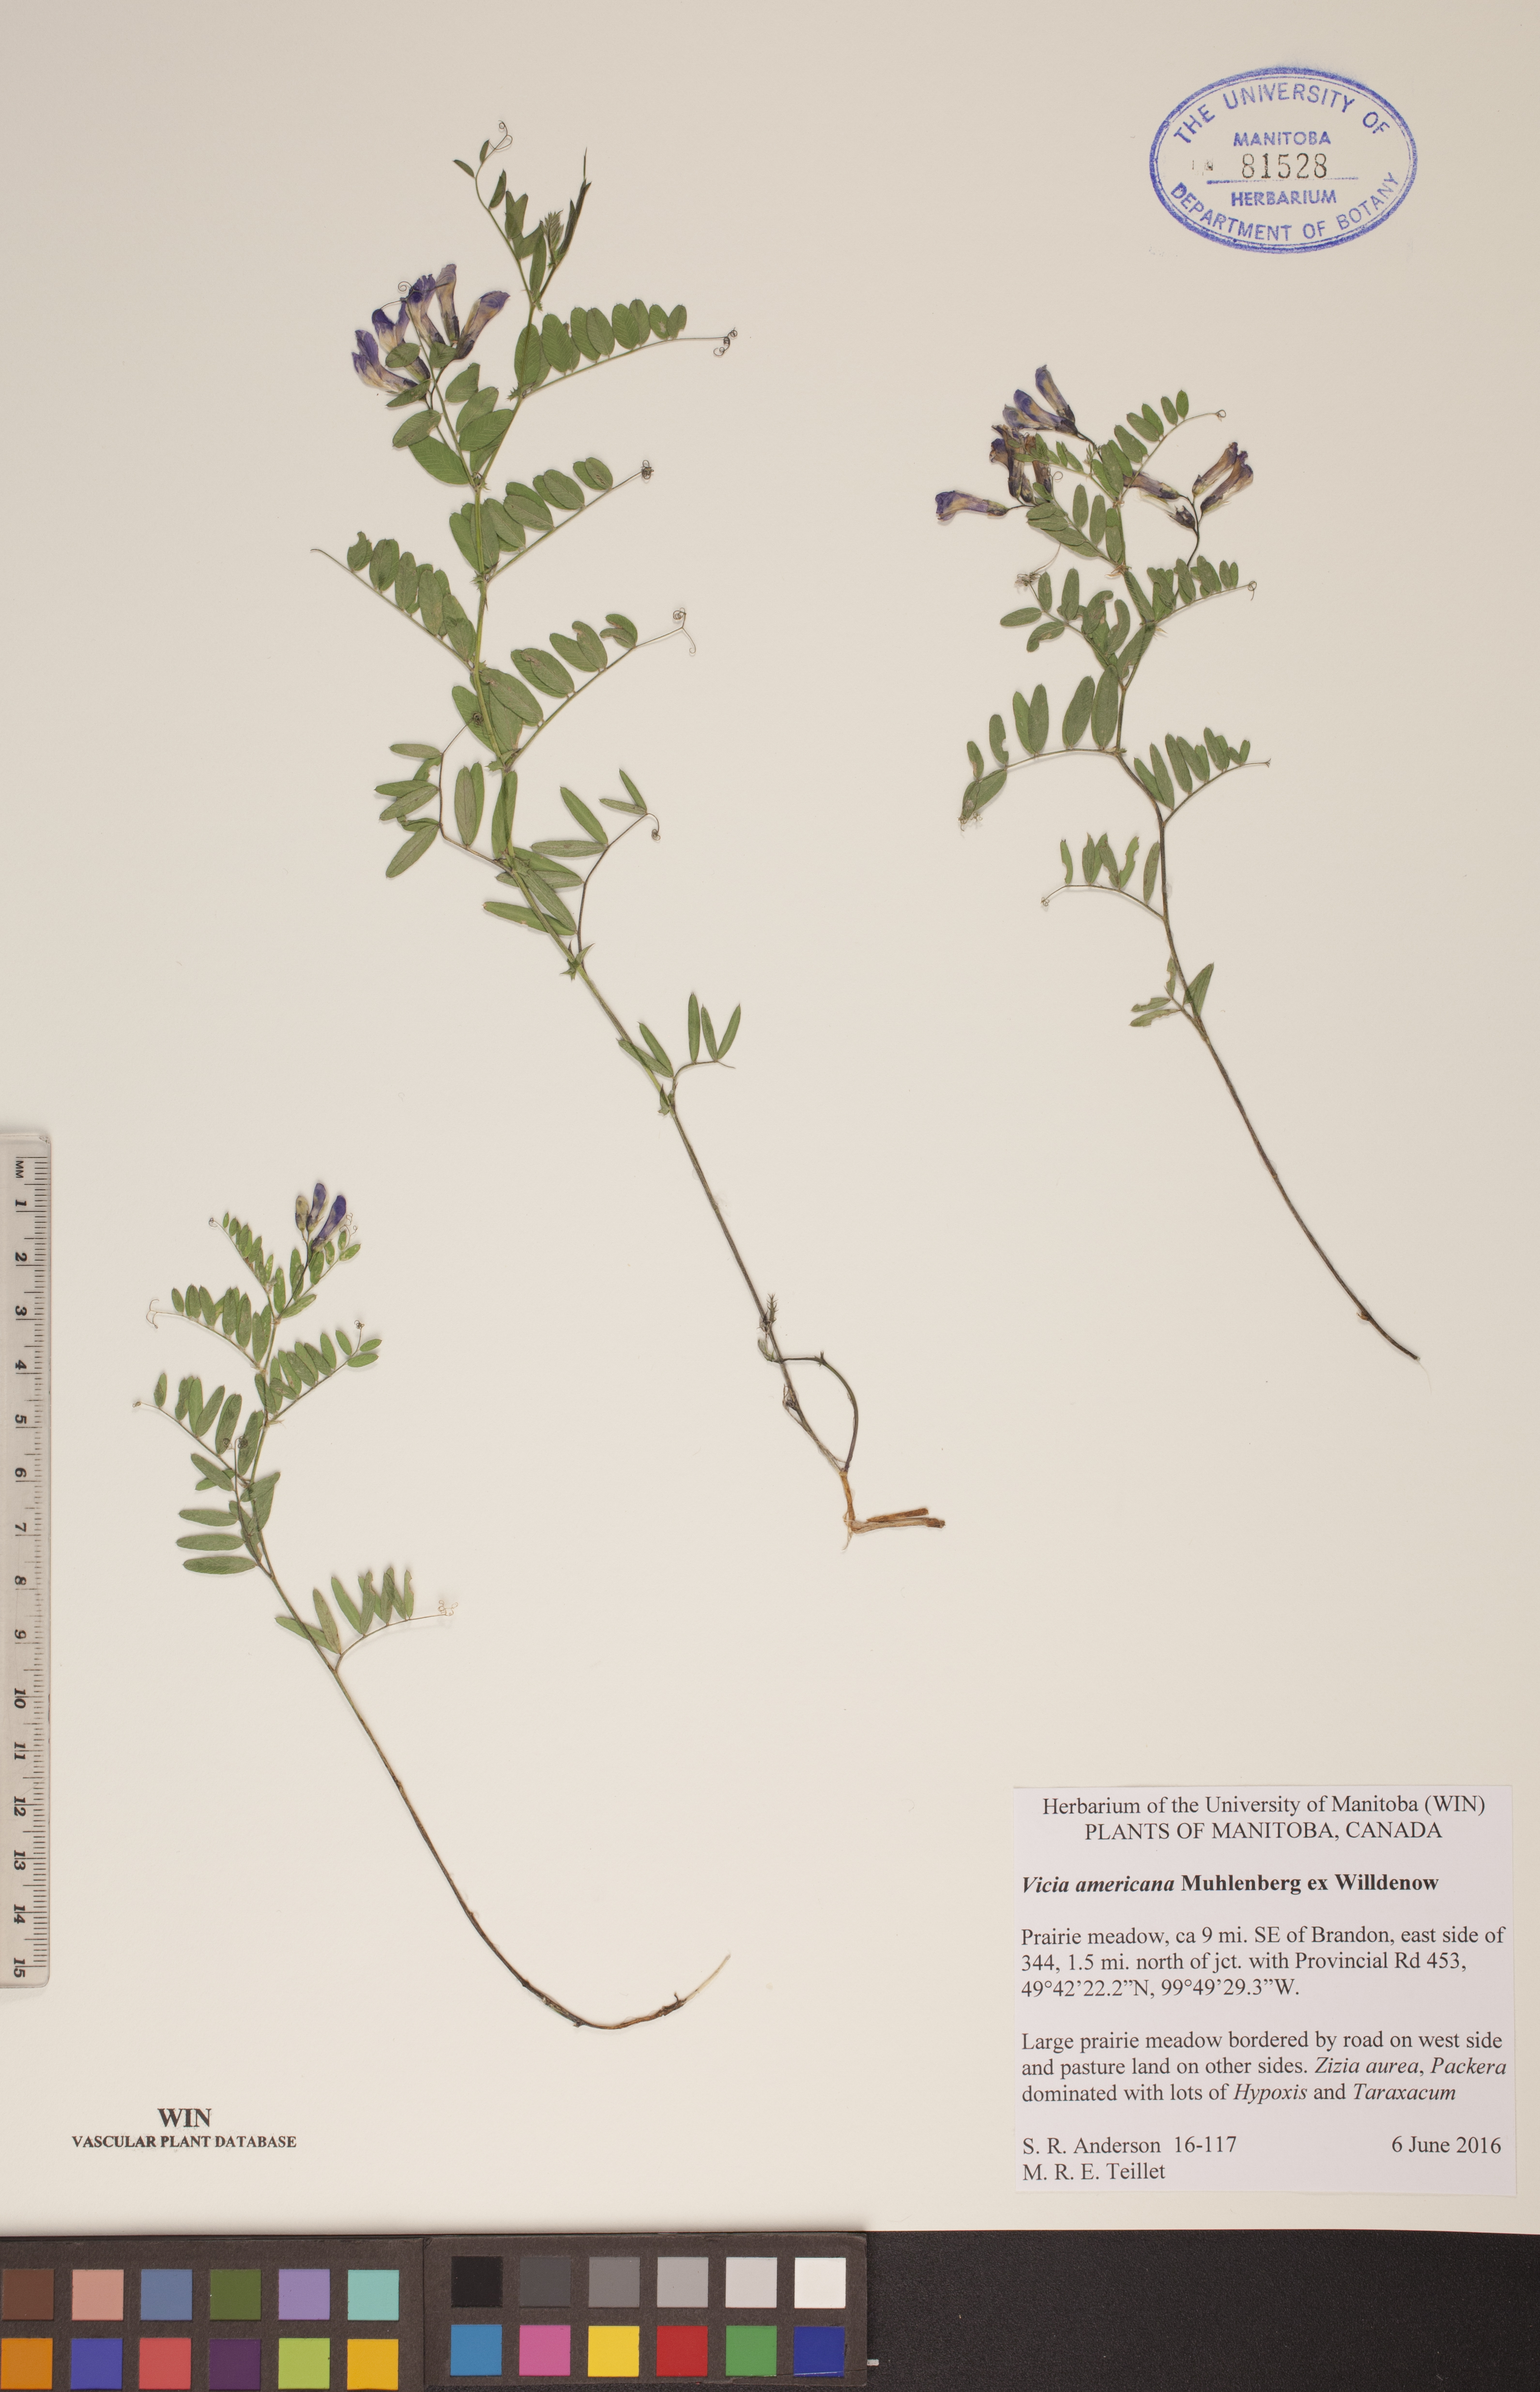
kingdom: Plantae
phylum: Tracheophyta
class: Magnoliopsida
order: Fabales
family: Fabaceae
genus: Vicia
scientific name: Vicia americana
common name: American vetch
